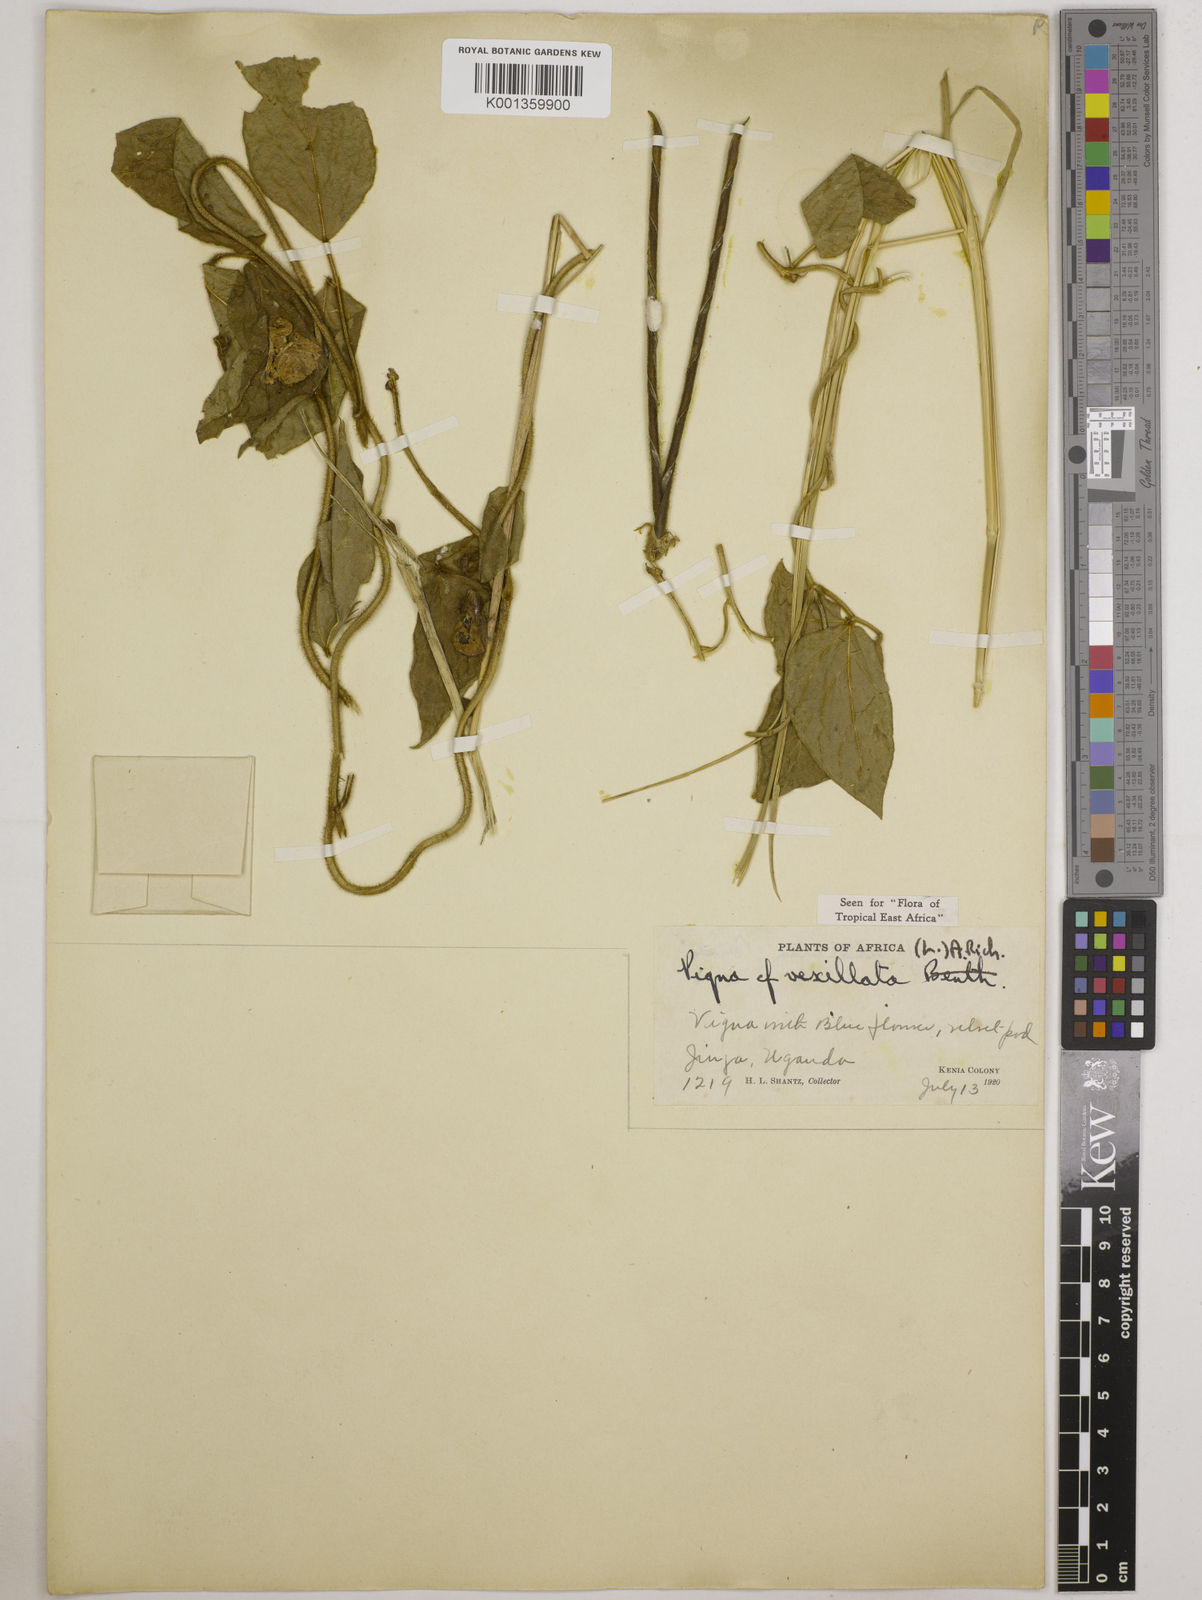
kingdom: Plantae
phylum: Tracheophyta
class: Magnoliopsida
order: Fabales
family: Fabaceae
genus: Vigna
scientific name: Vigna vexillata
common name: Zombi pea
